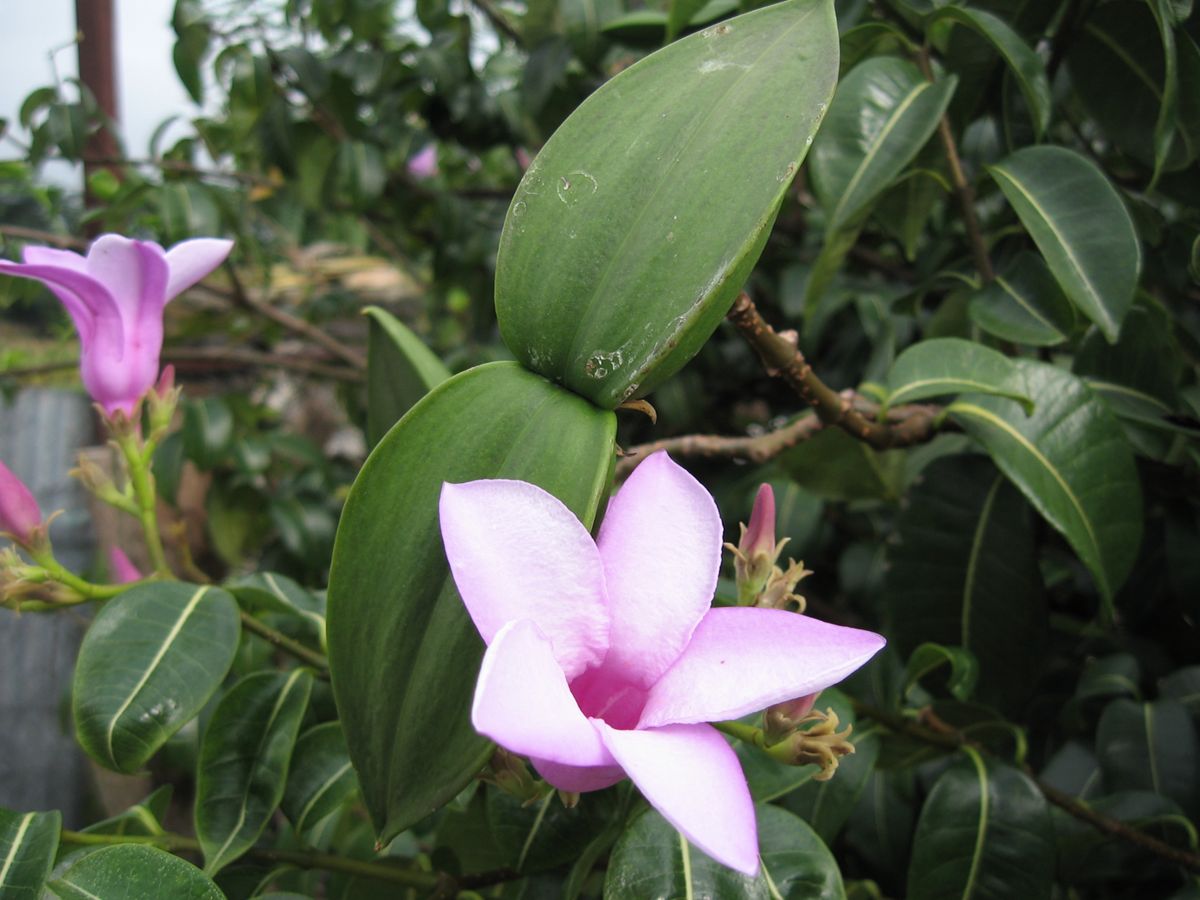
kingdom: Plantae
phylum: Tracheophyta
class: Magnoliopsida
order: Gentianales
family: Apocynaceae
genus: Cryptostegia
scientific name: Cryptostegia madagascariensis
